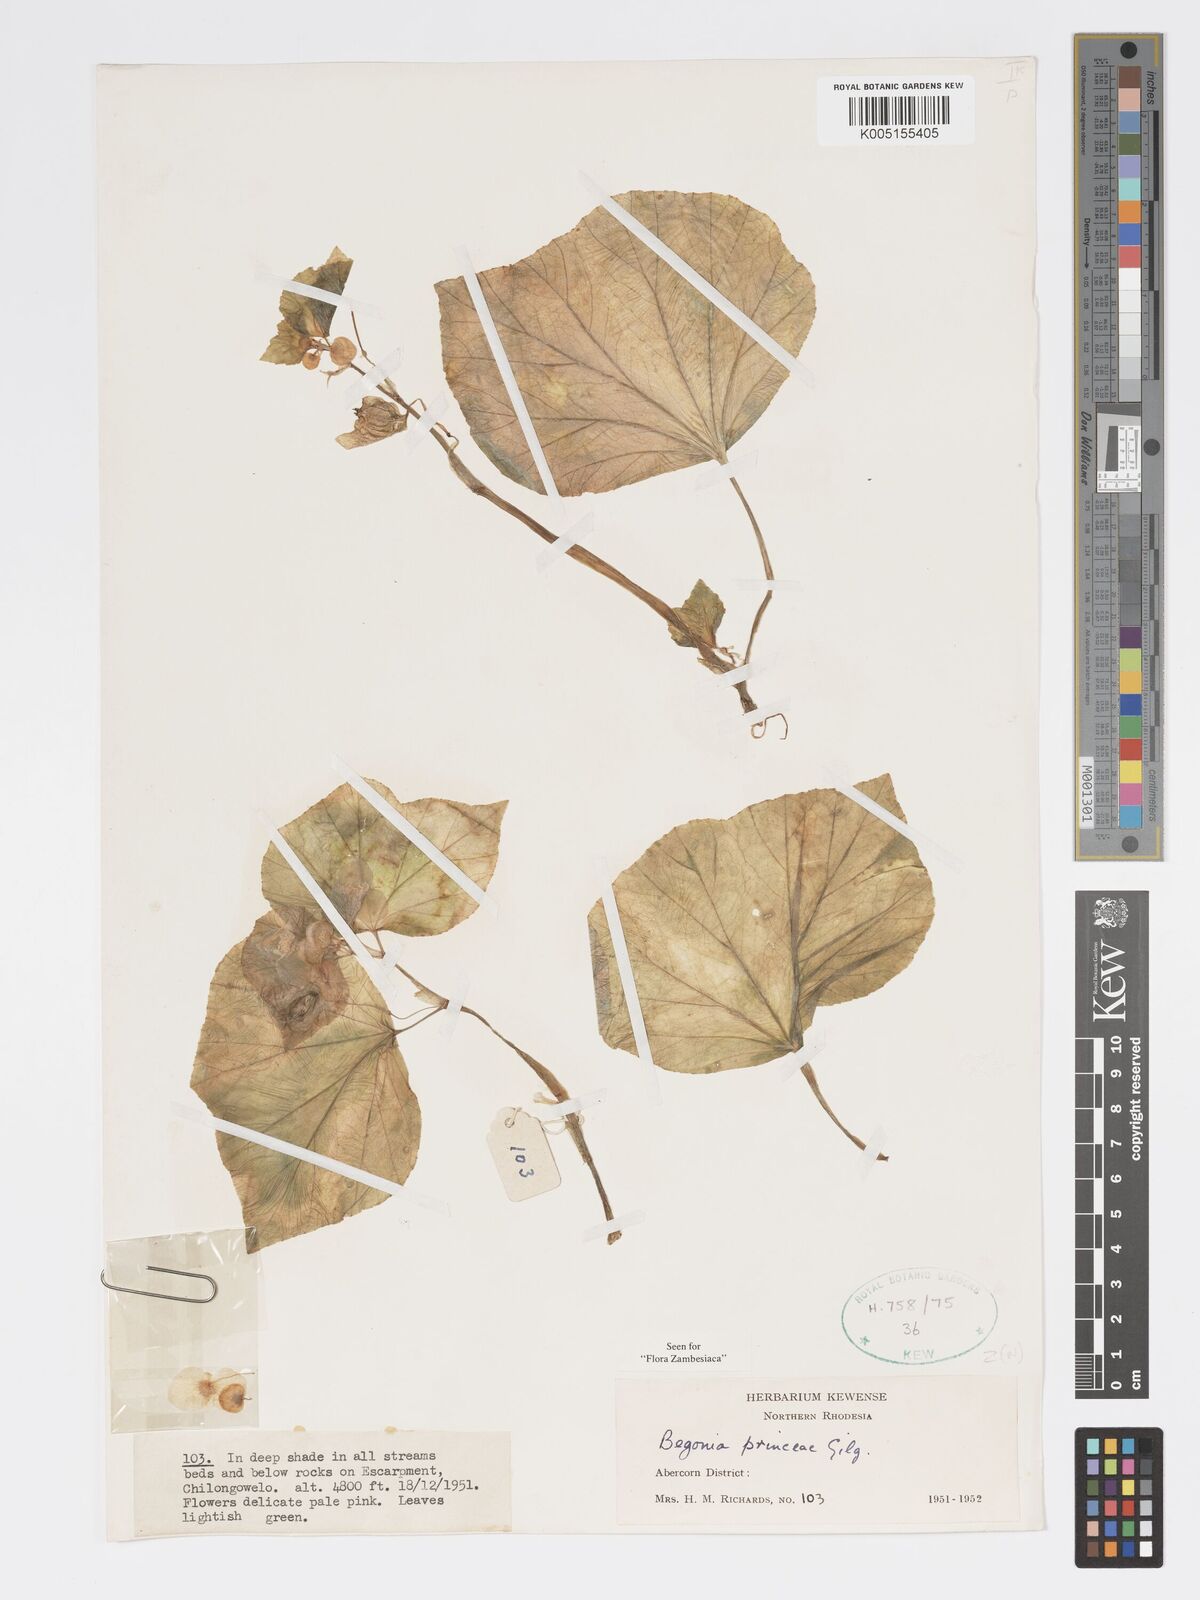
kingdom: Plantae
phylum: Tracheophyta
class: Magnoliopsida
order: Cucurbitales
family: Begoniaceae
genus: Begonia
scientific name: Begonia princeae
